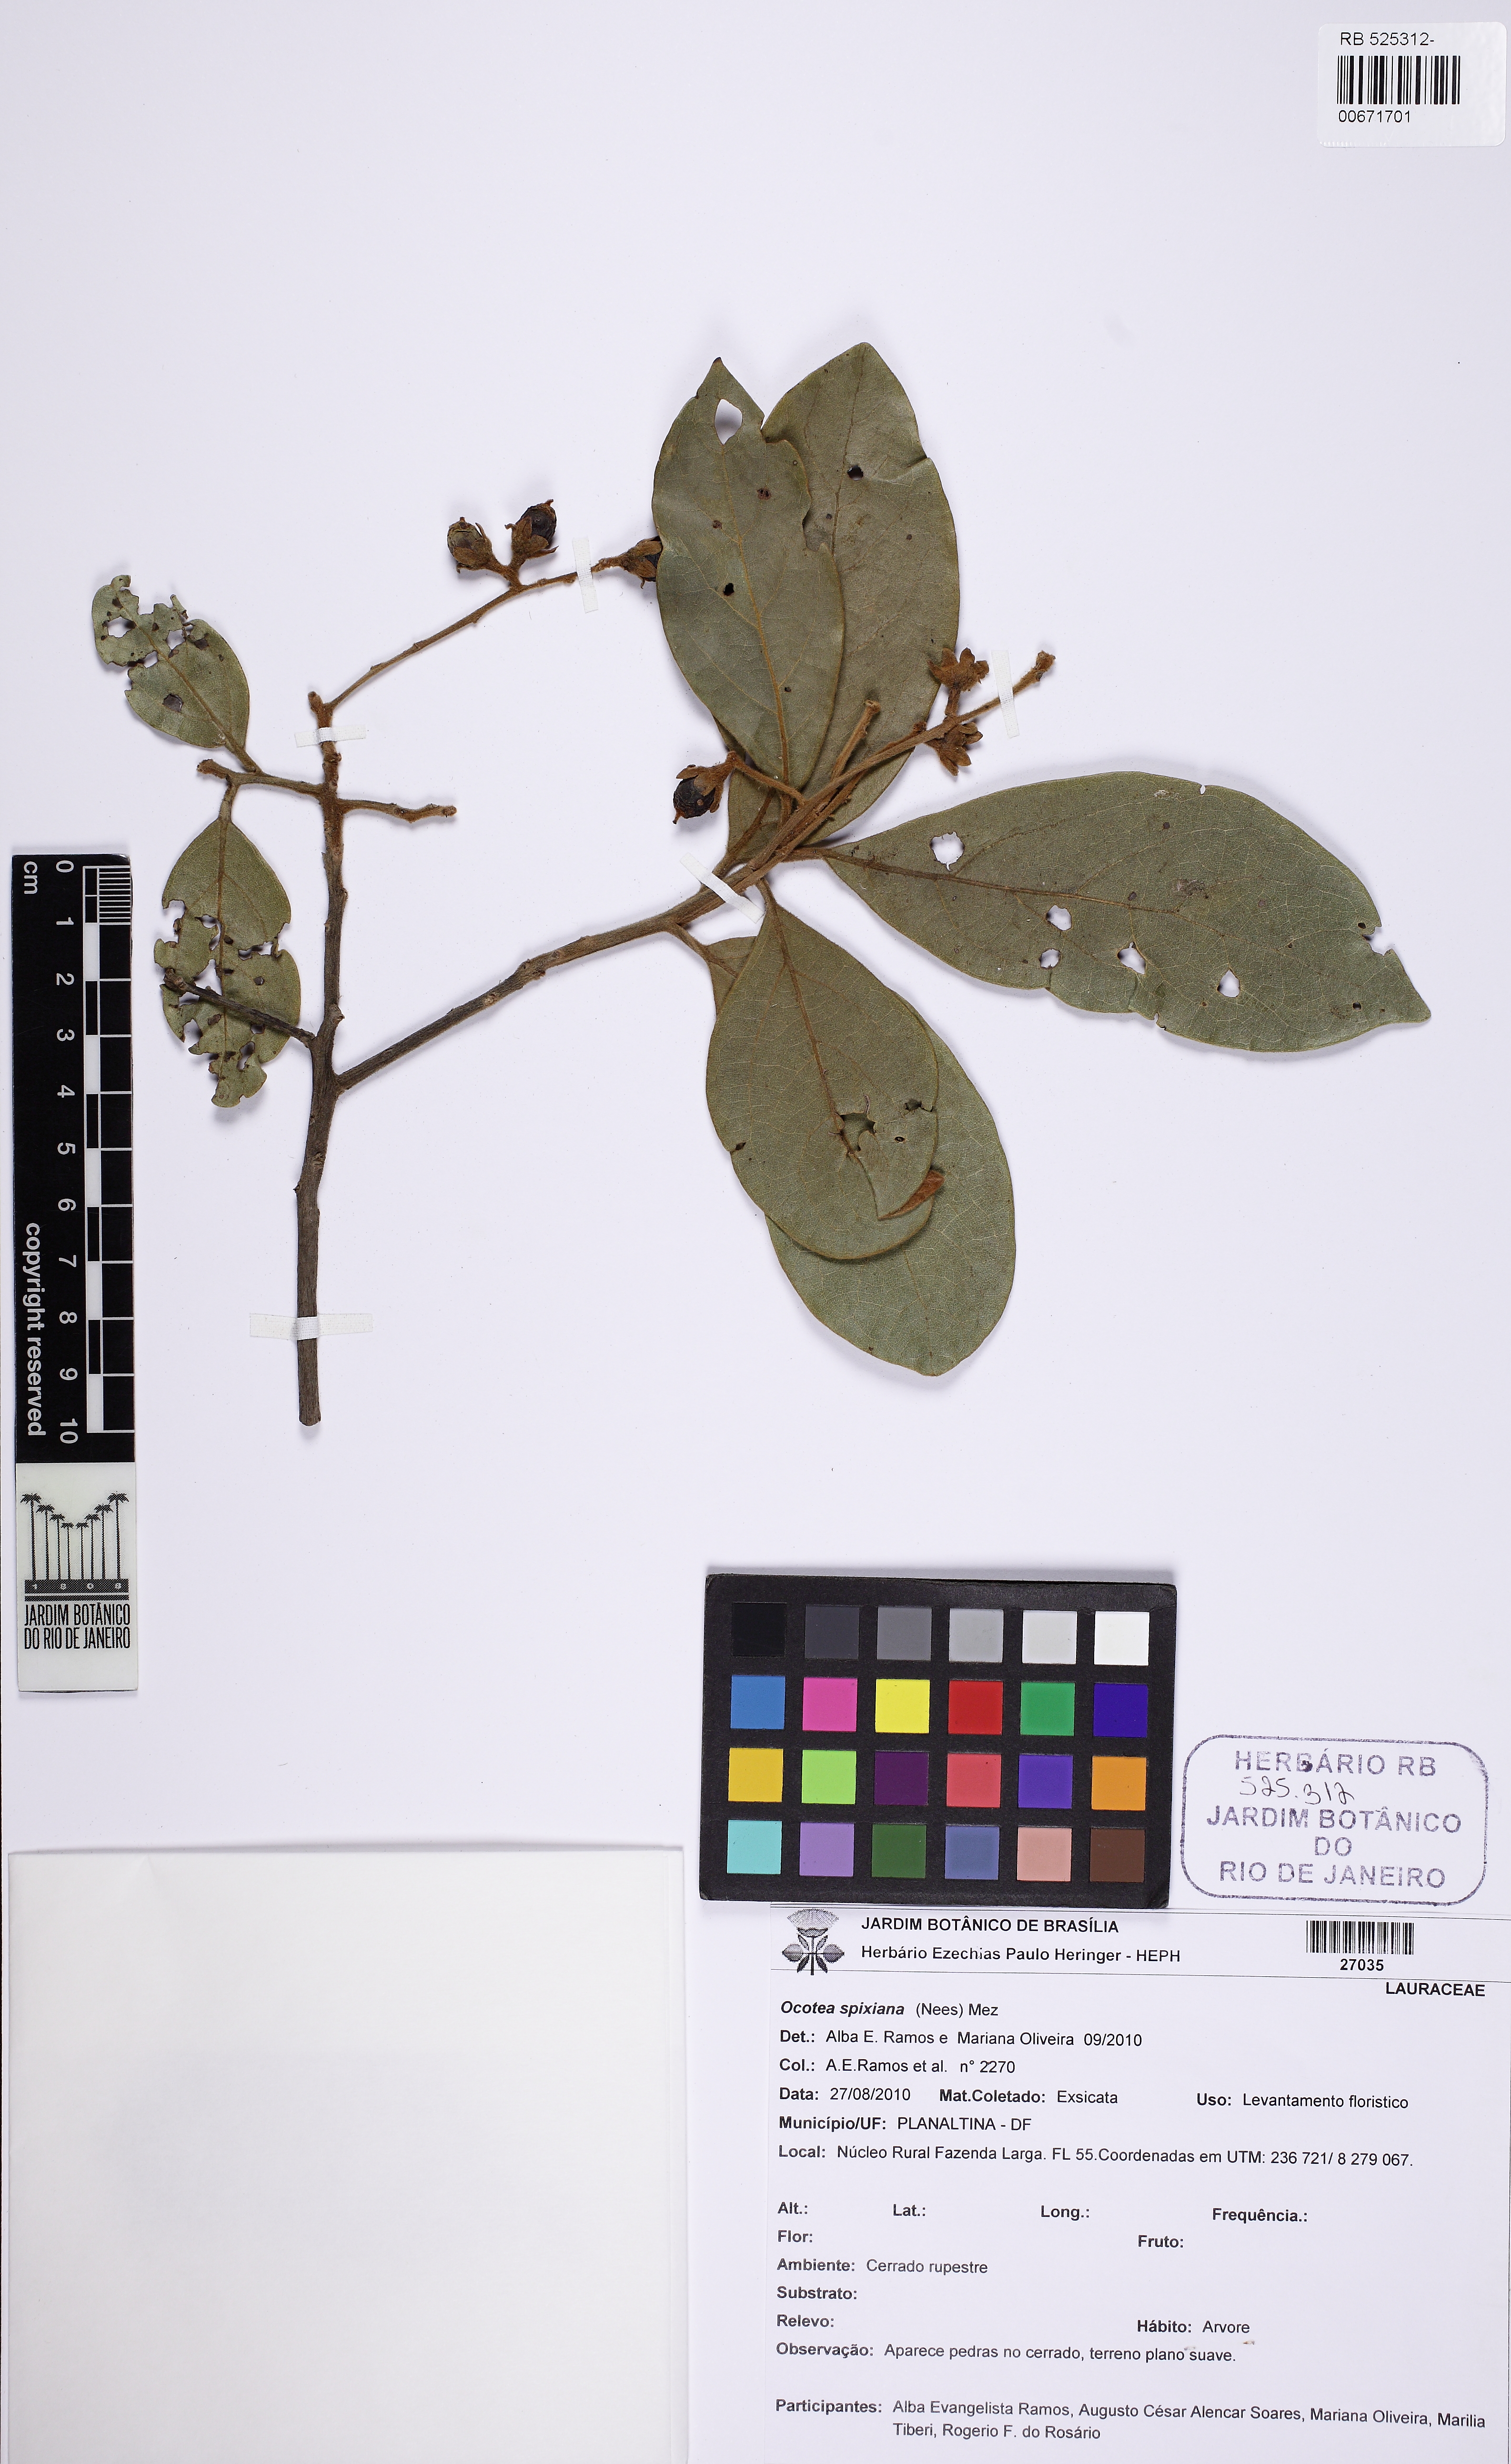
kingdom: Plantae
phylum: Tracheophyta
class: Magnoliopsida
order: Laurales
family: Lauraceae
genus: Ocotea
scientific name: Ocotea spixiana
